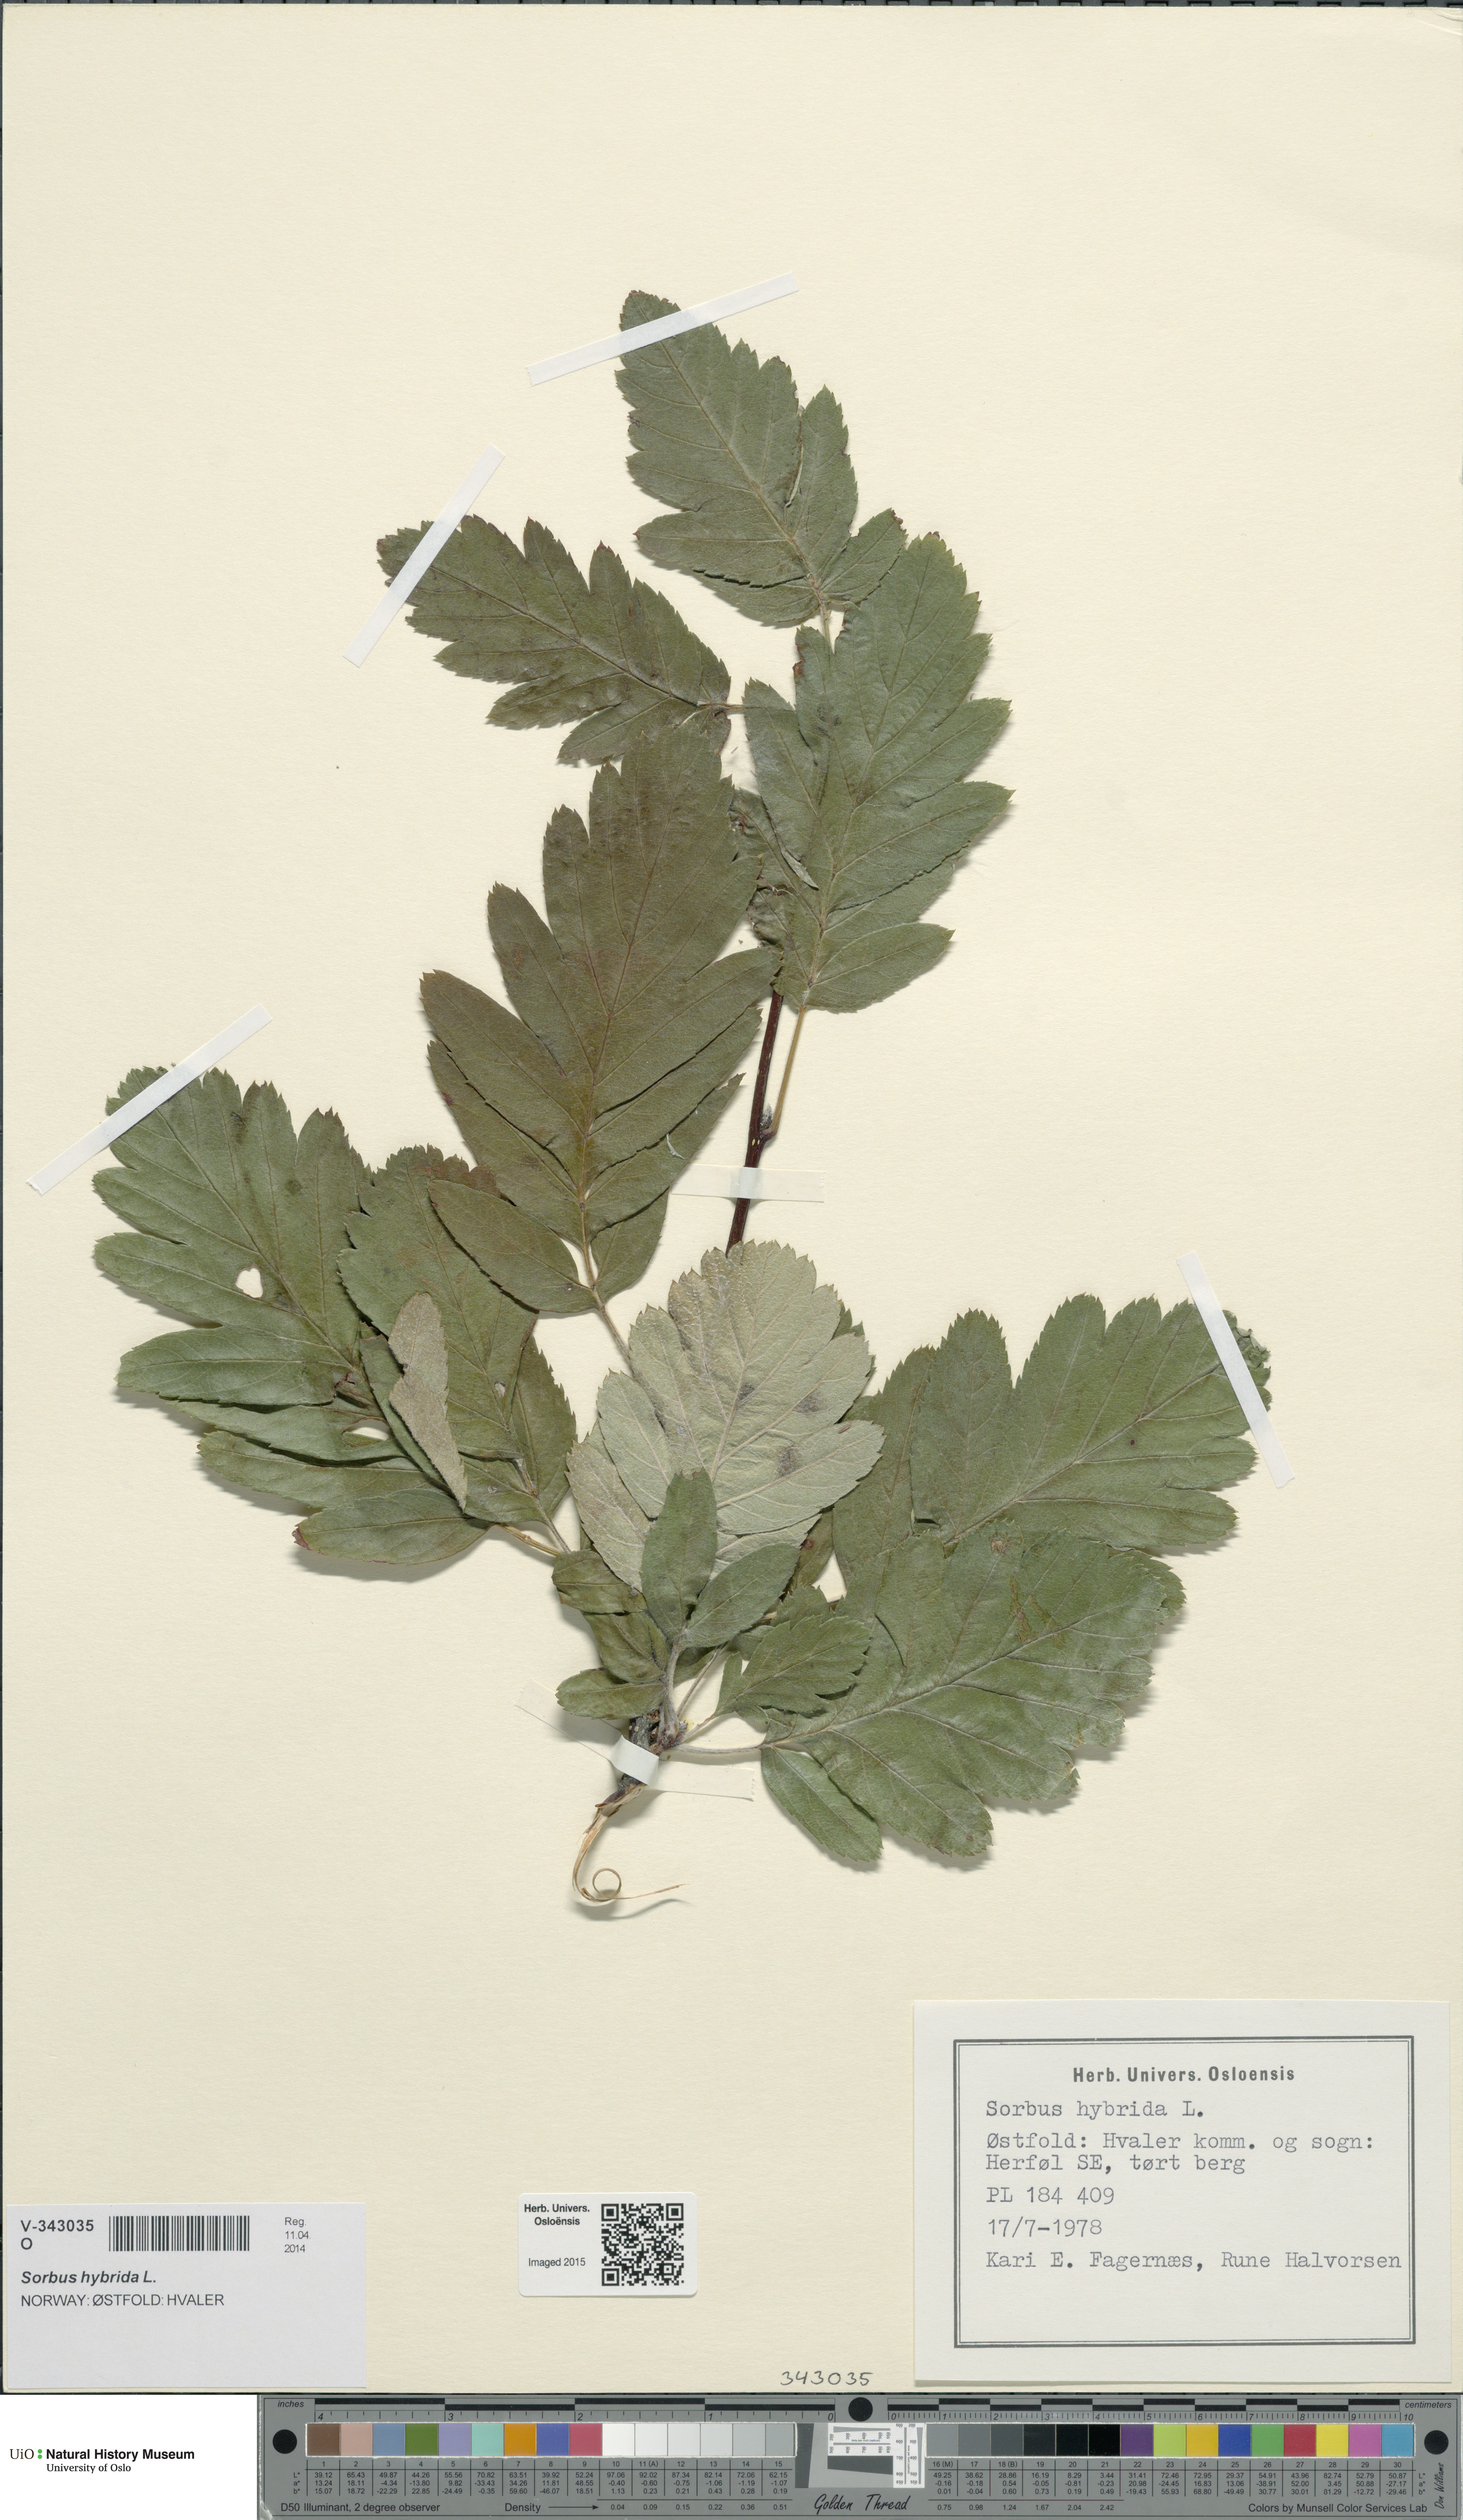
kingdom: Plantae
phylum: Tracheophyta
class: Magnoliopsida
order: Rosales
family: Rosaceae
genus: Hedlundia
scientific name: Hedlundia hybrida
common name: Swedish service-tree
